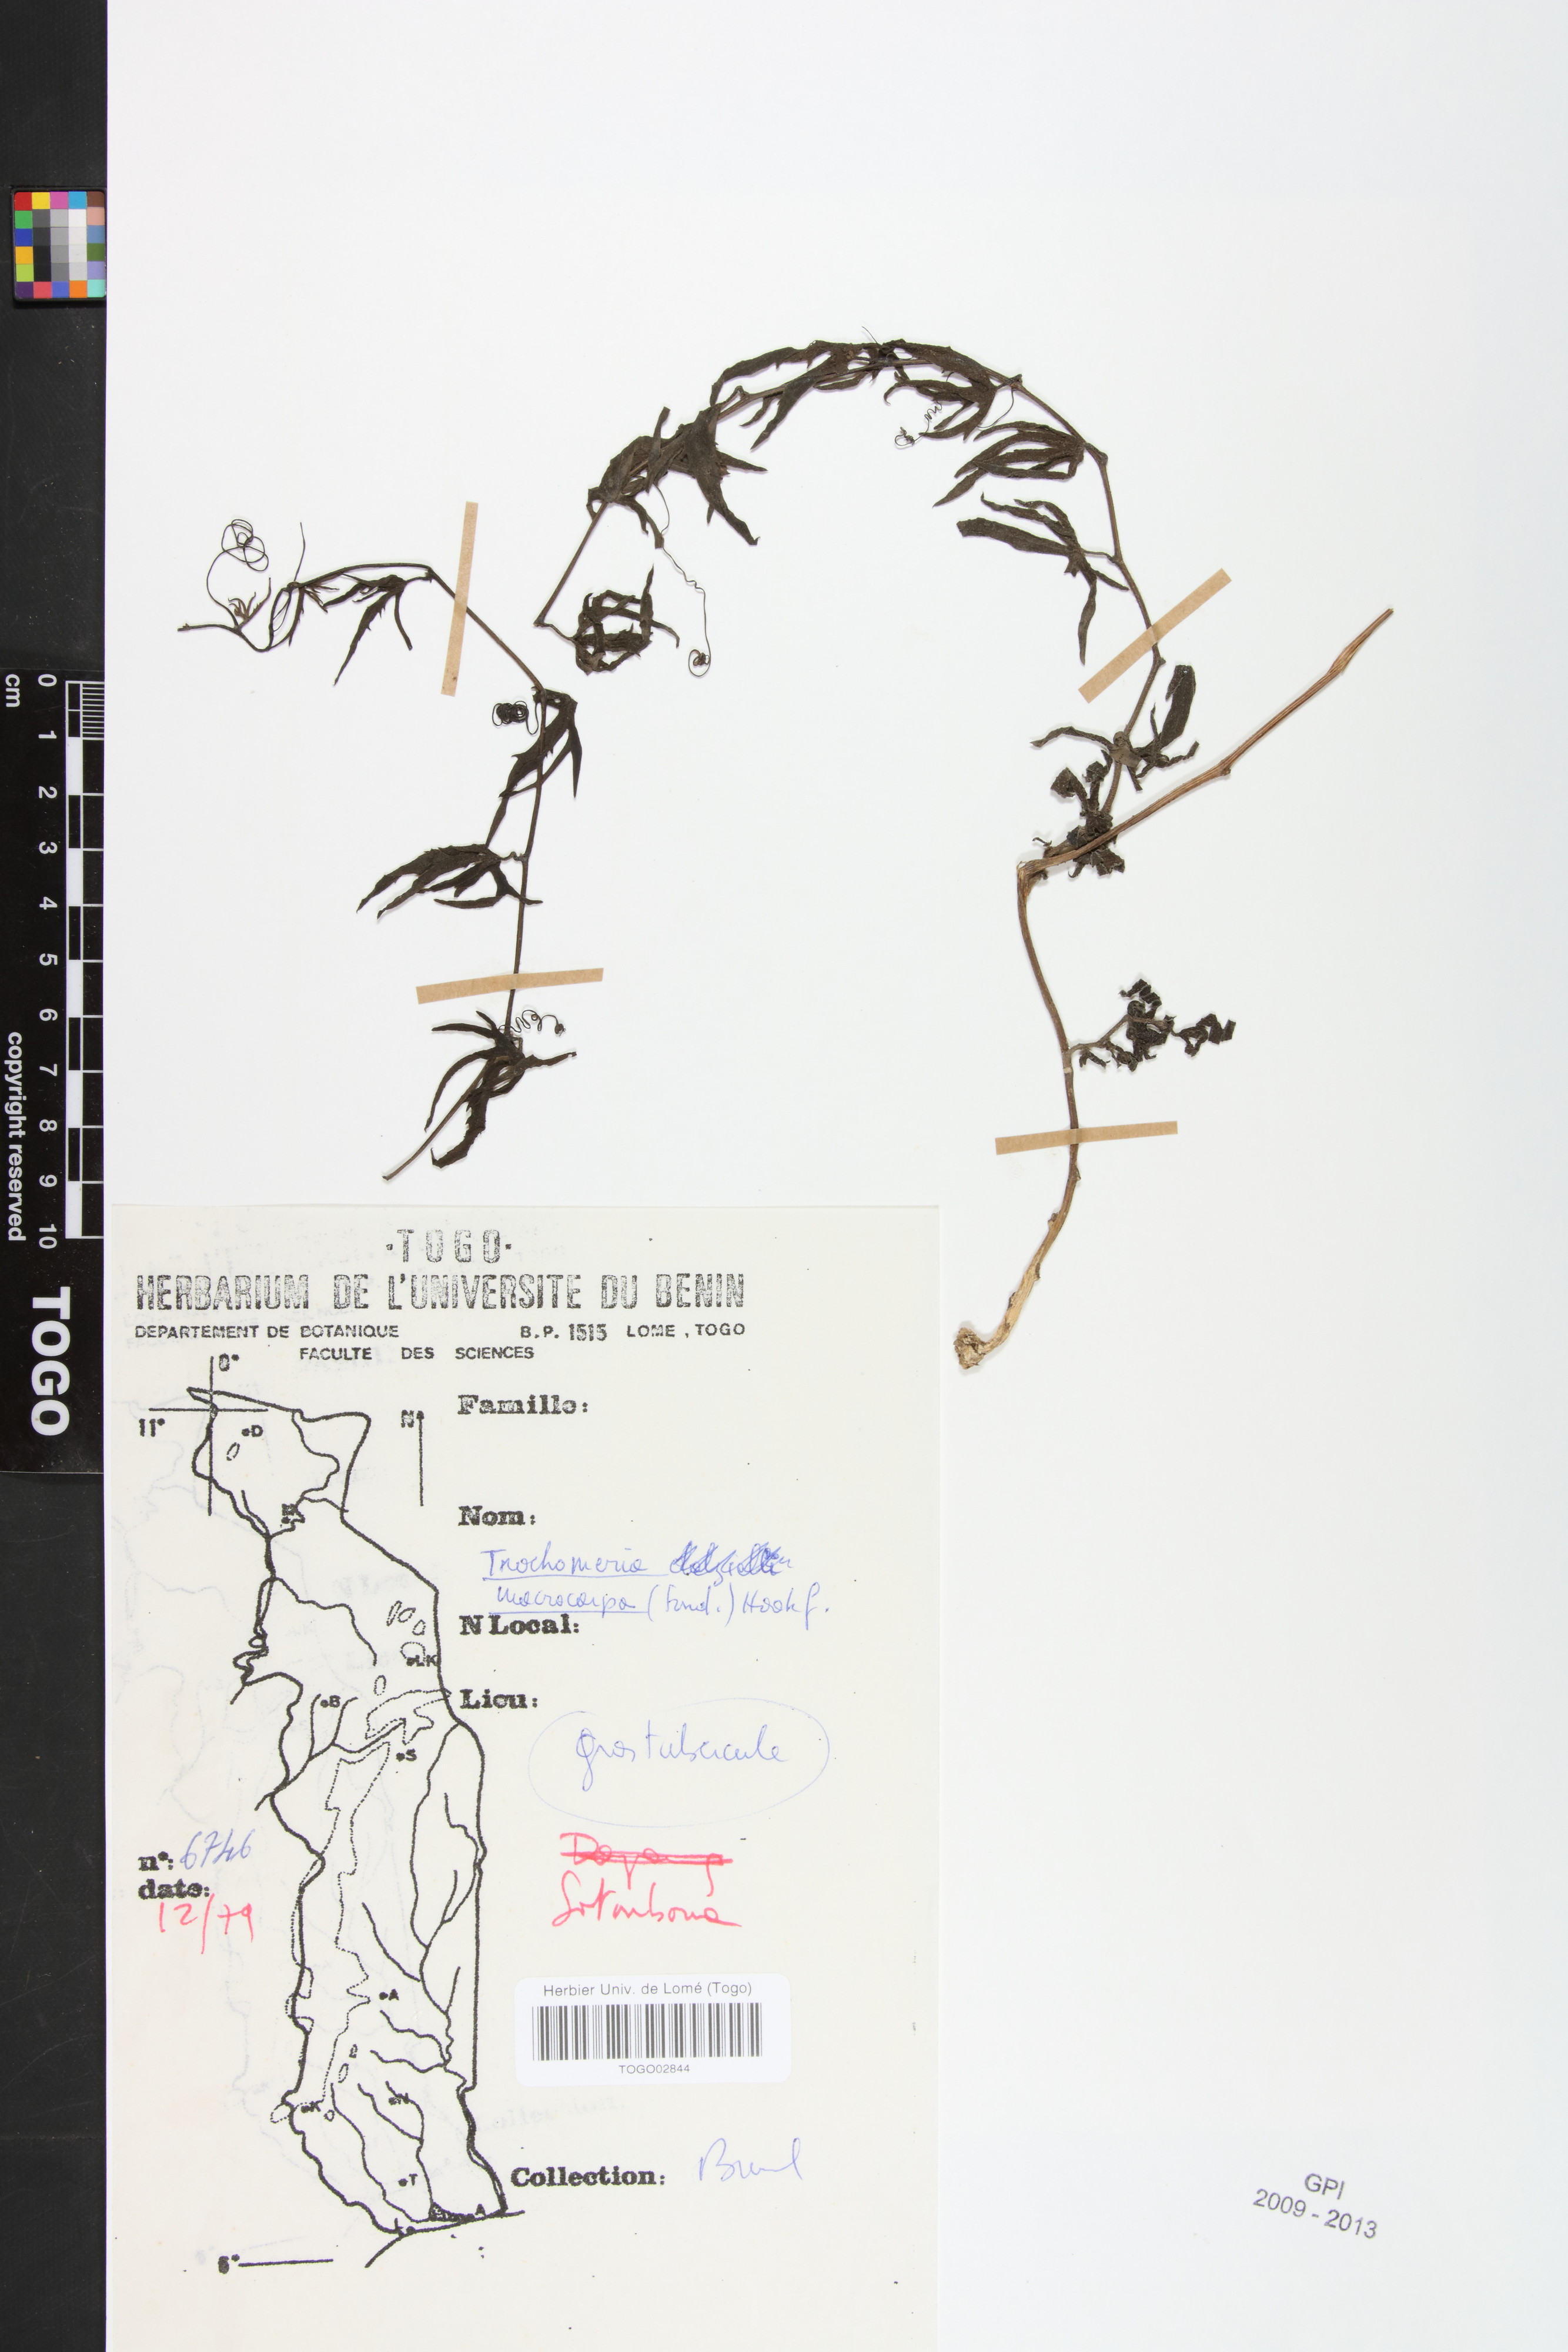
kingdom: Plantae
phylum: Tracheophyta
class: Magnoliopsida
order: Cucurbitales
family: Cucurbitaceae
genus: Trochomeria
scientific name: Trochomeria macrocarpa
